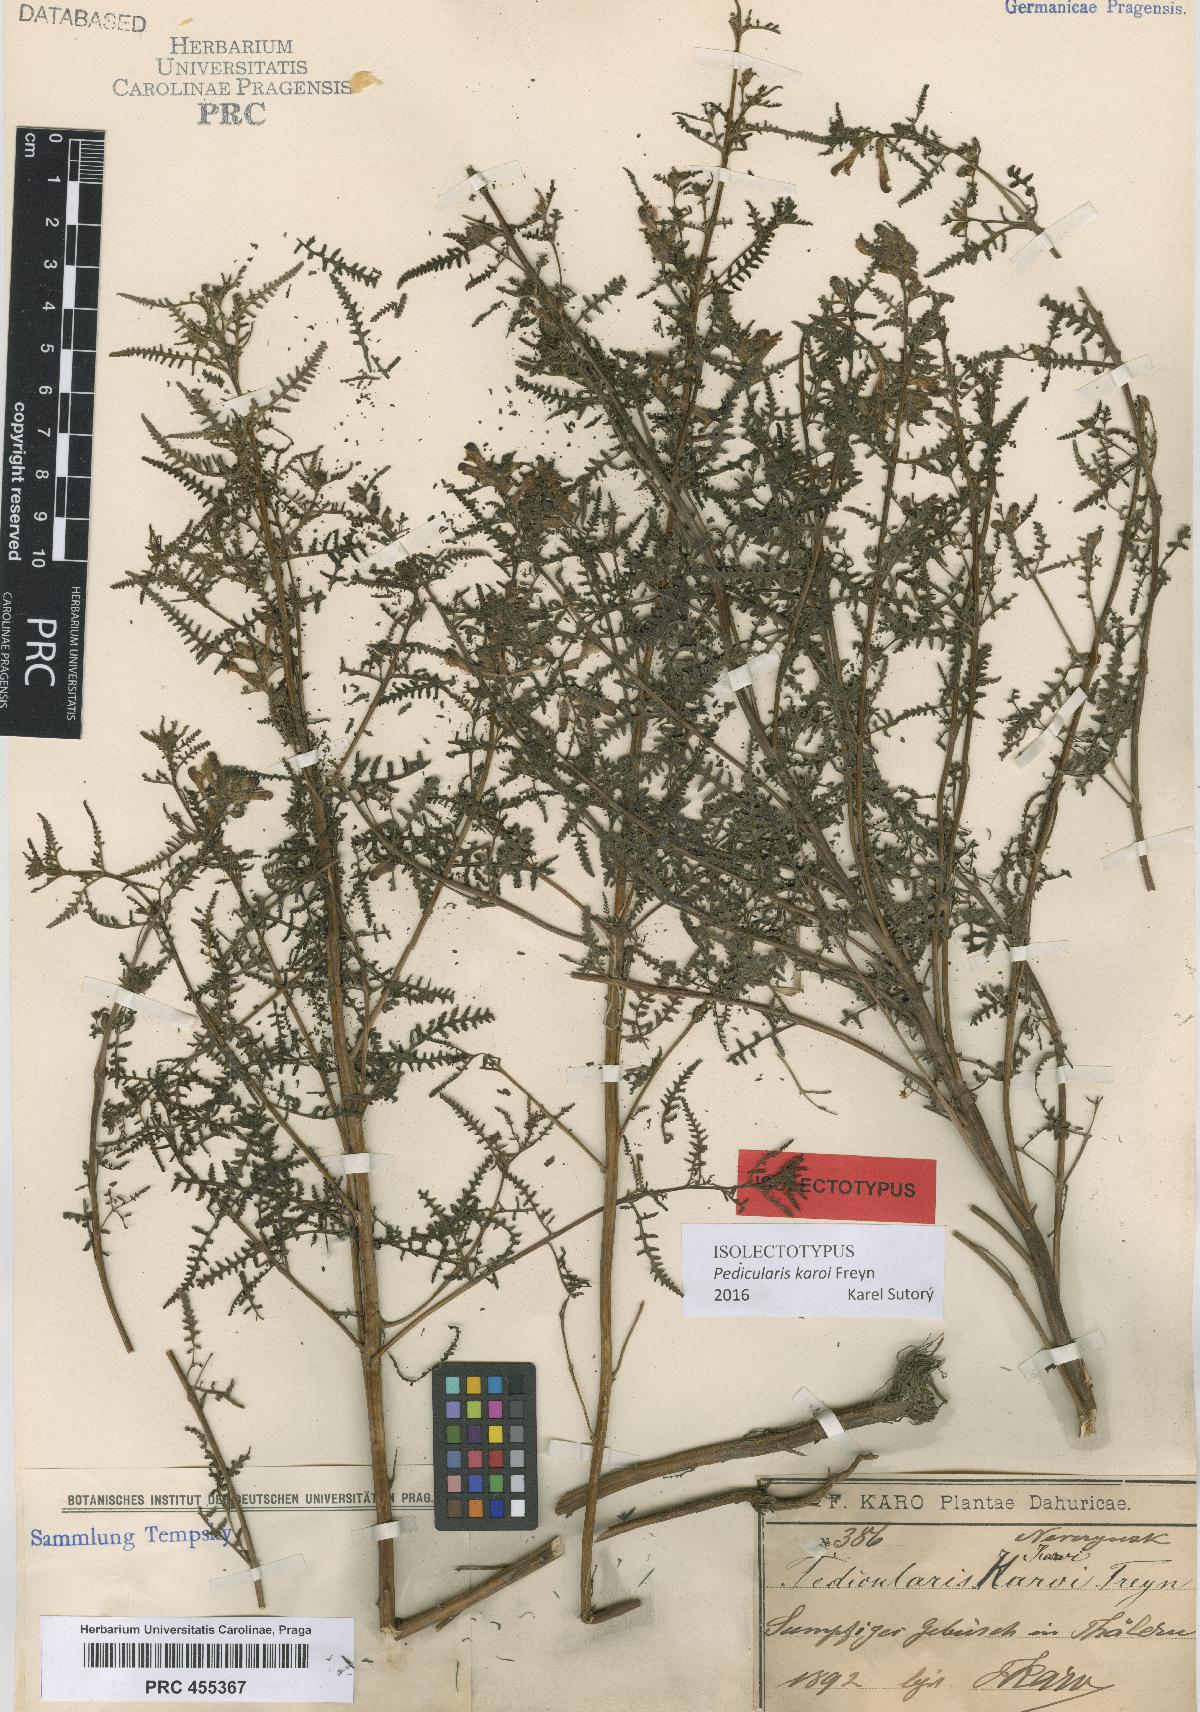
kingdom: Plantae
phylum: Tracheophyta
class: Magnoliopsida
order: Lamiales
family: Orobanchaceae
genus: Pedicularis
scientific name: Pedicularis karoi
